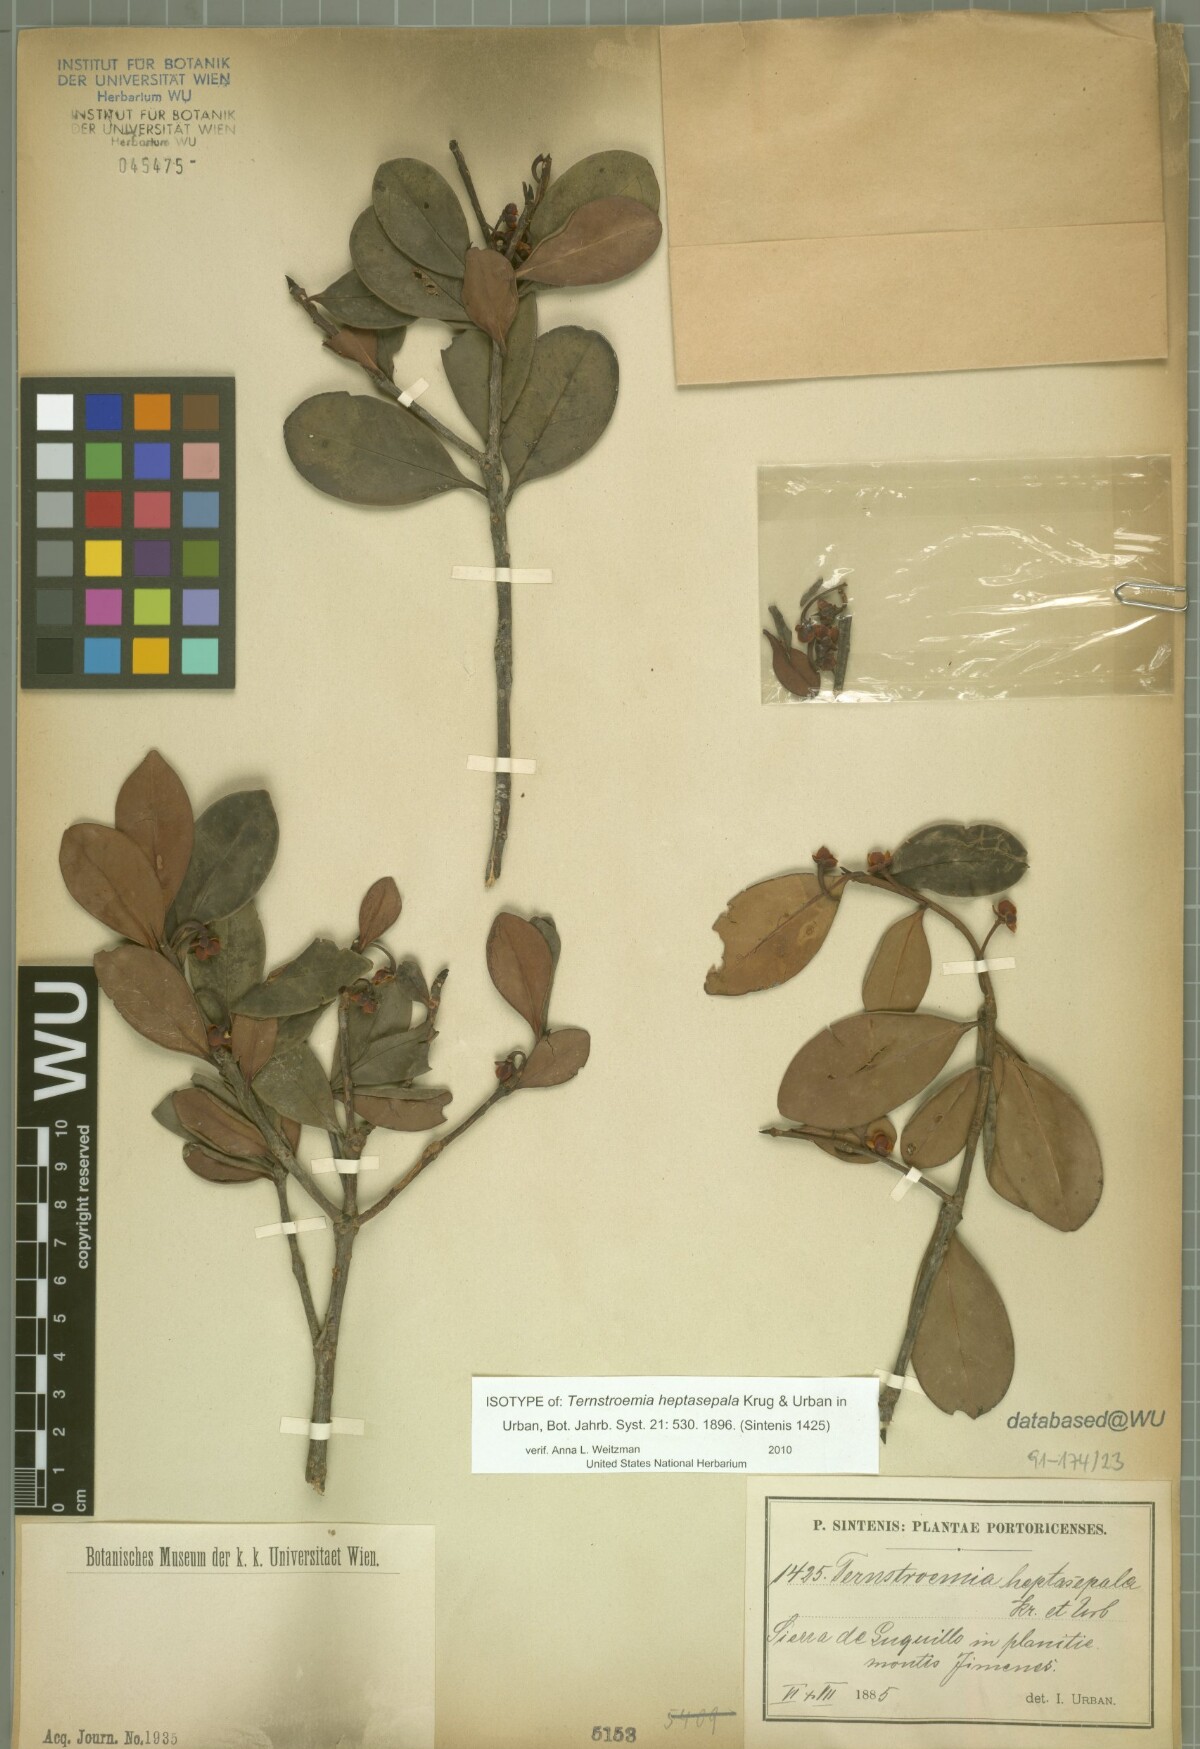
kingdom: Plantae
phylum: Tracheophyta
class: Magnoliopsida
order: Ericales
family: Pentaphylacaceae
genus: Ternstroemia
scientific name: Ternstroemia heptasepala
